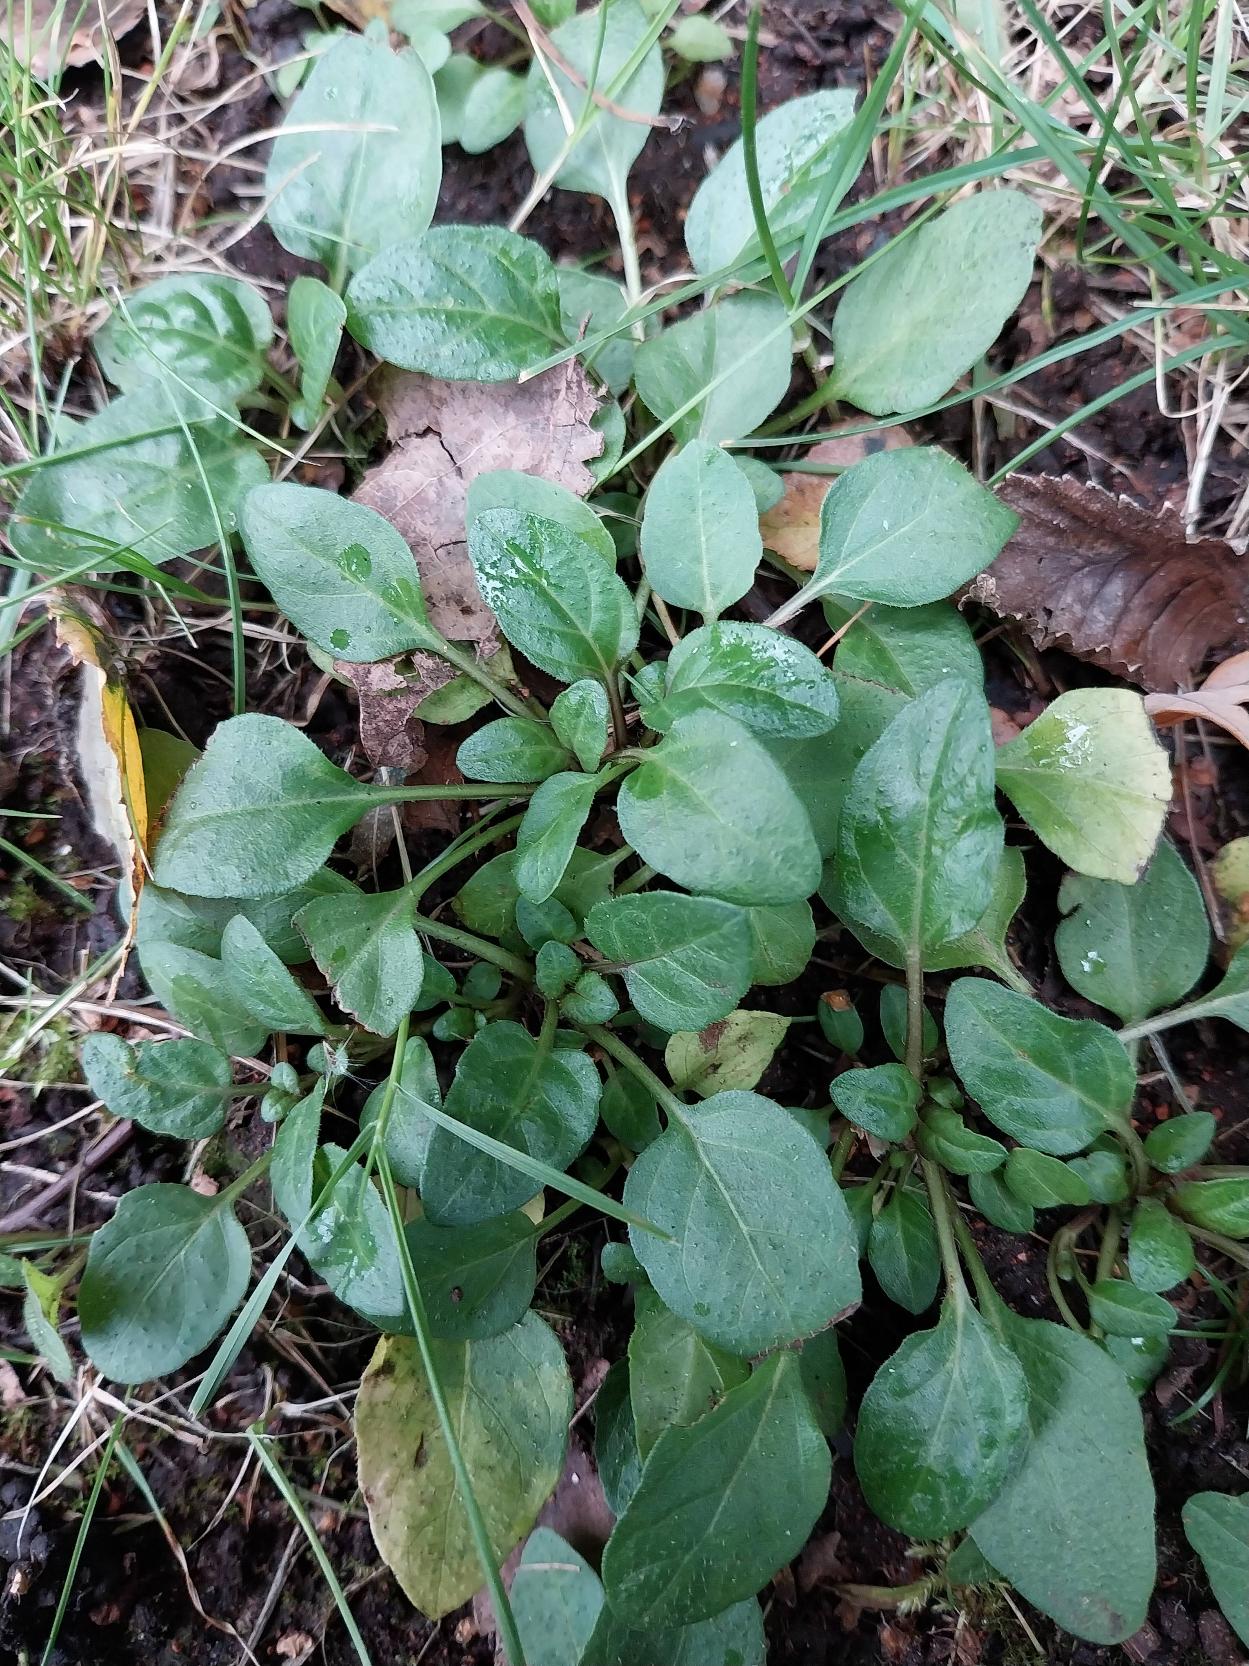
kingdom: Plantae
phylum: Tracheophyta
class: Magnoliopsida
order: Lamiales
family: Lamiaceae
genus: Prunella
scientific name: Prunella vulgaris
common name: Almindelig brunelle
